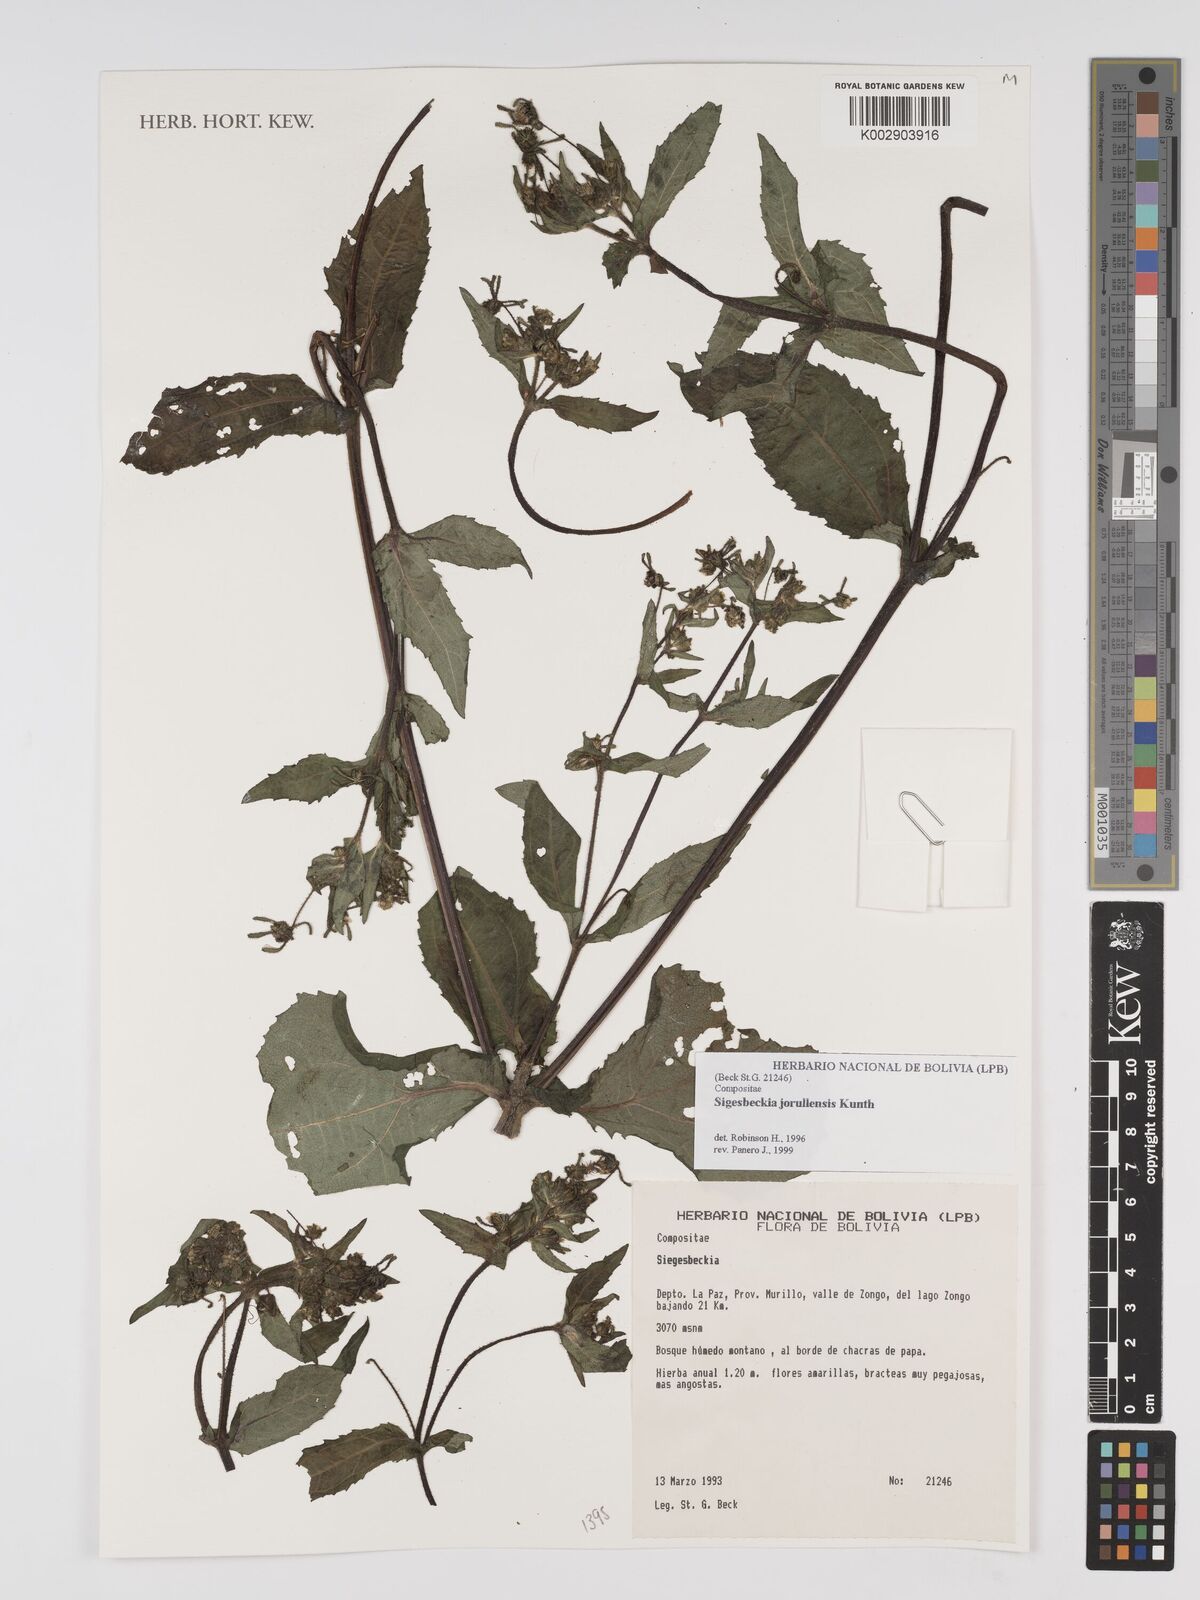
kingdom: Plantae
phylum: Tracheophyta
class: Magnoliopsida
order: Asterales
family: Asteraceae
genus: Sigesbeckia
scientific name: Sigesbeckia jorullensis
